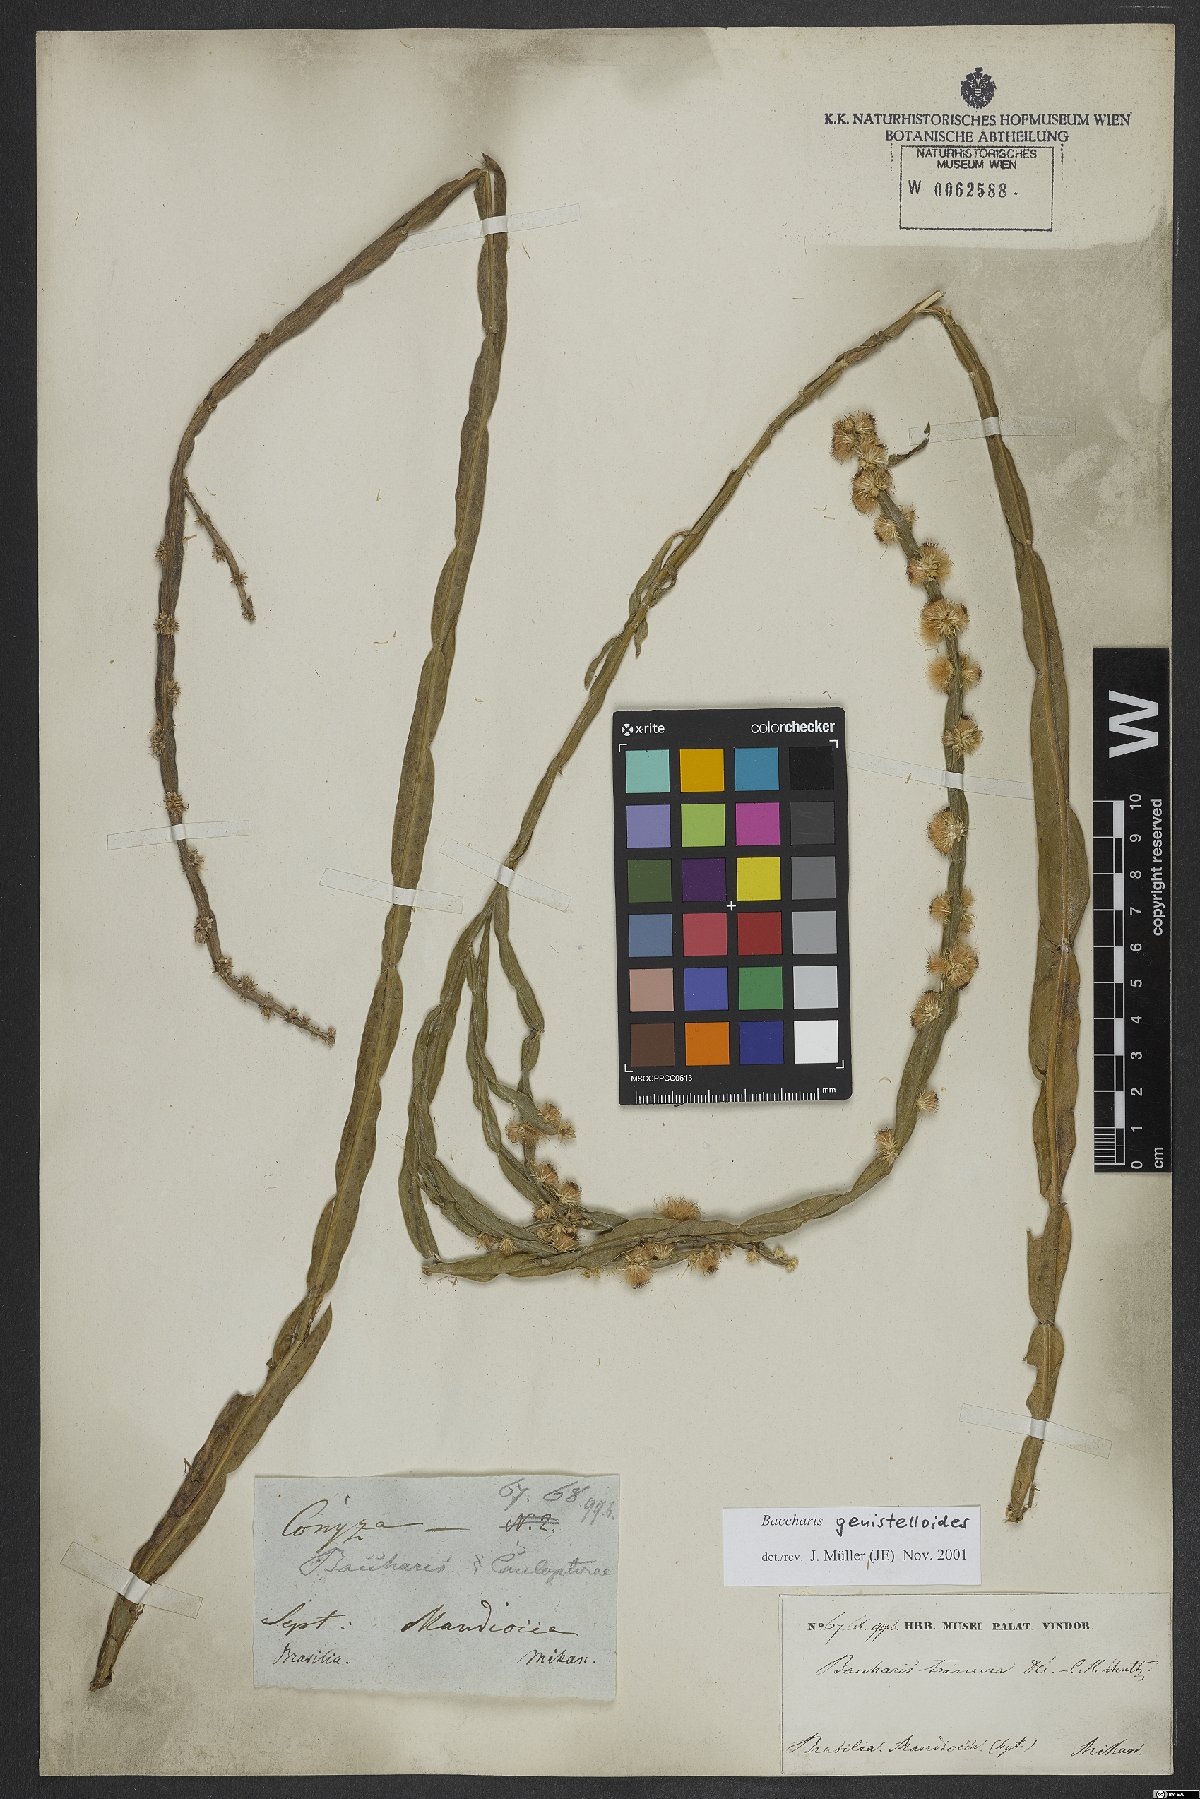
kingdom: Plantae
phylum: Tracheophyta
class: Magnoliopsida
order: Asterales
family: Asteraceae
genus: Baccharis
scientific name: Baccharis genistelloides
